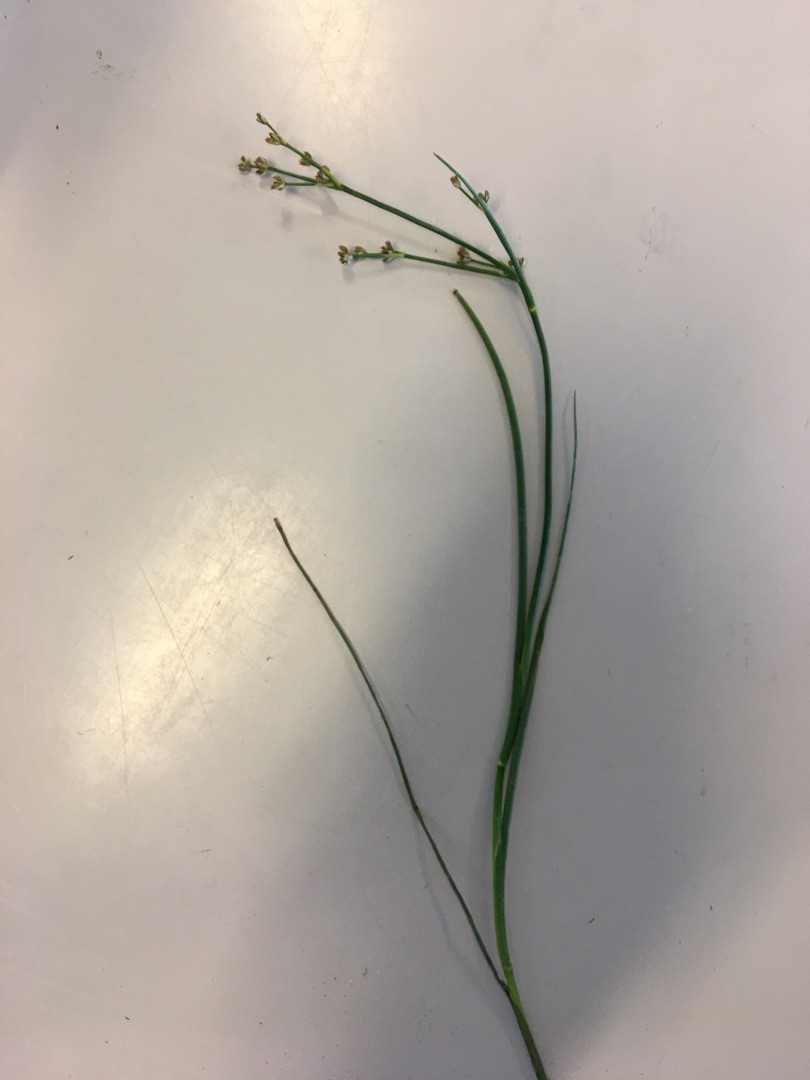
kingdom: Plantae
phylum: Tracheophyta
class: Liliopsida
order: Poales
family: Juncaceae
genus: Juncus
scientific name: Juncus articulatus
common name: Glanskapslet siv
